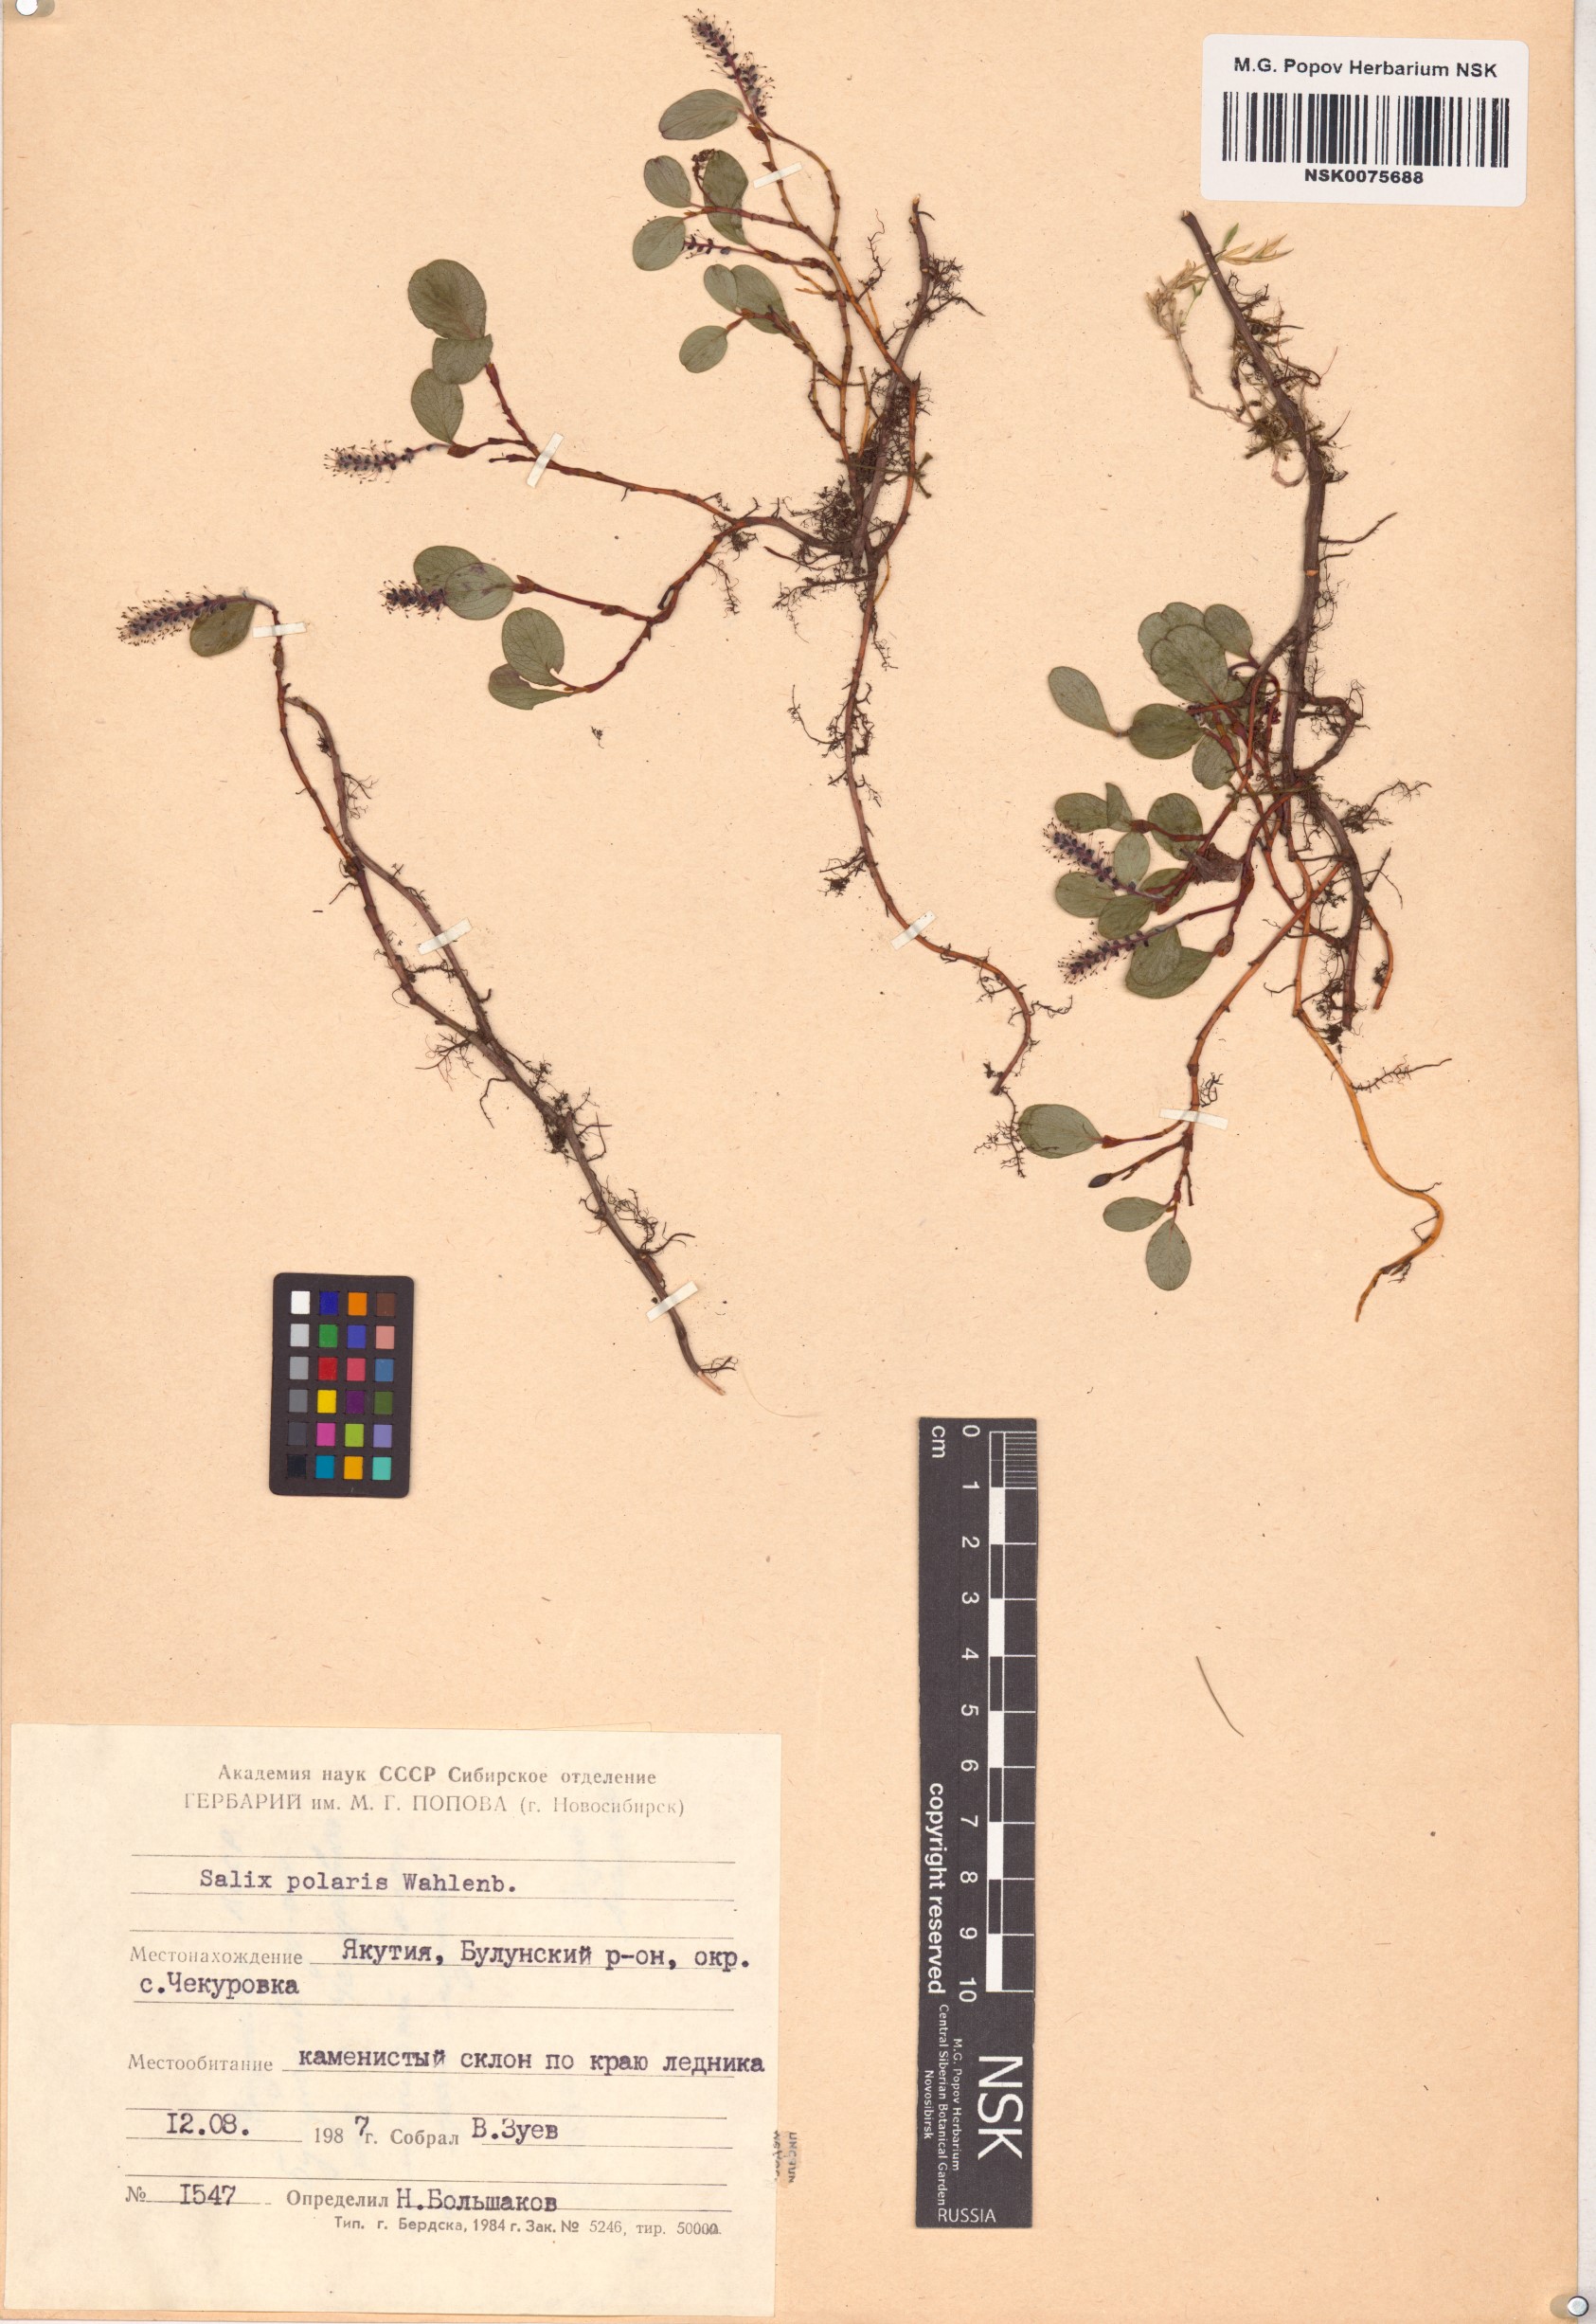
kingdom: Plantae
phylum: Tracheophyta
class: Magnoliopsida
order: Malpighiales
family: Salicaceae
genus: Salix
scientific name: Salix polaris
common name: Polar willow
